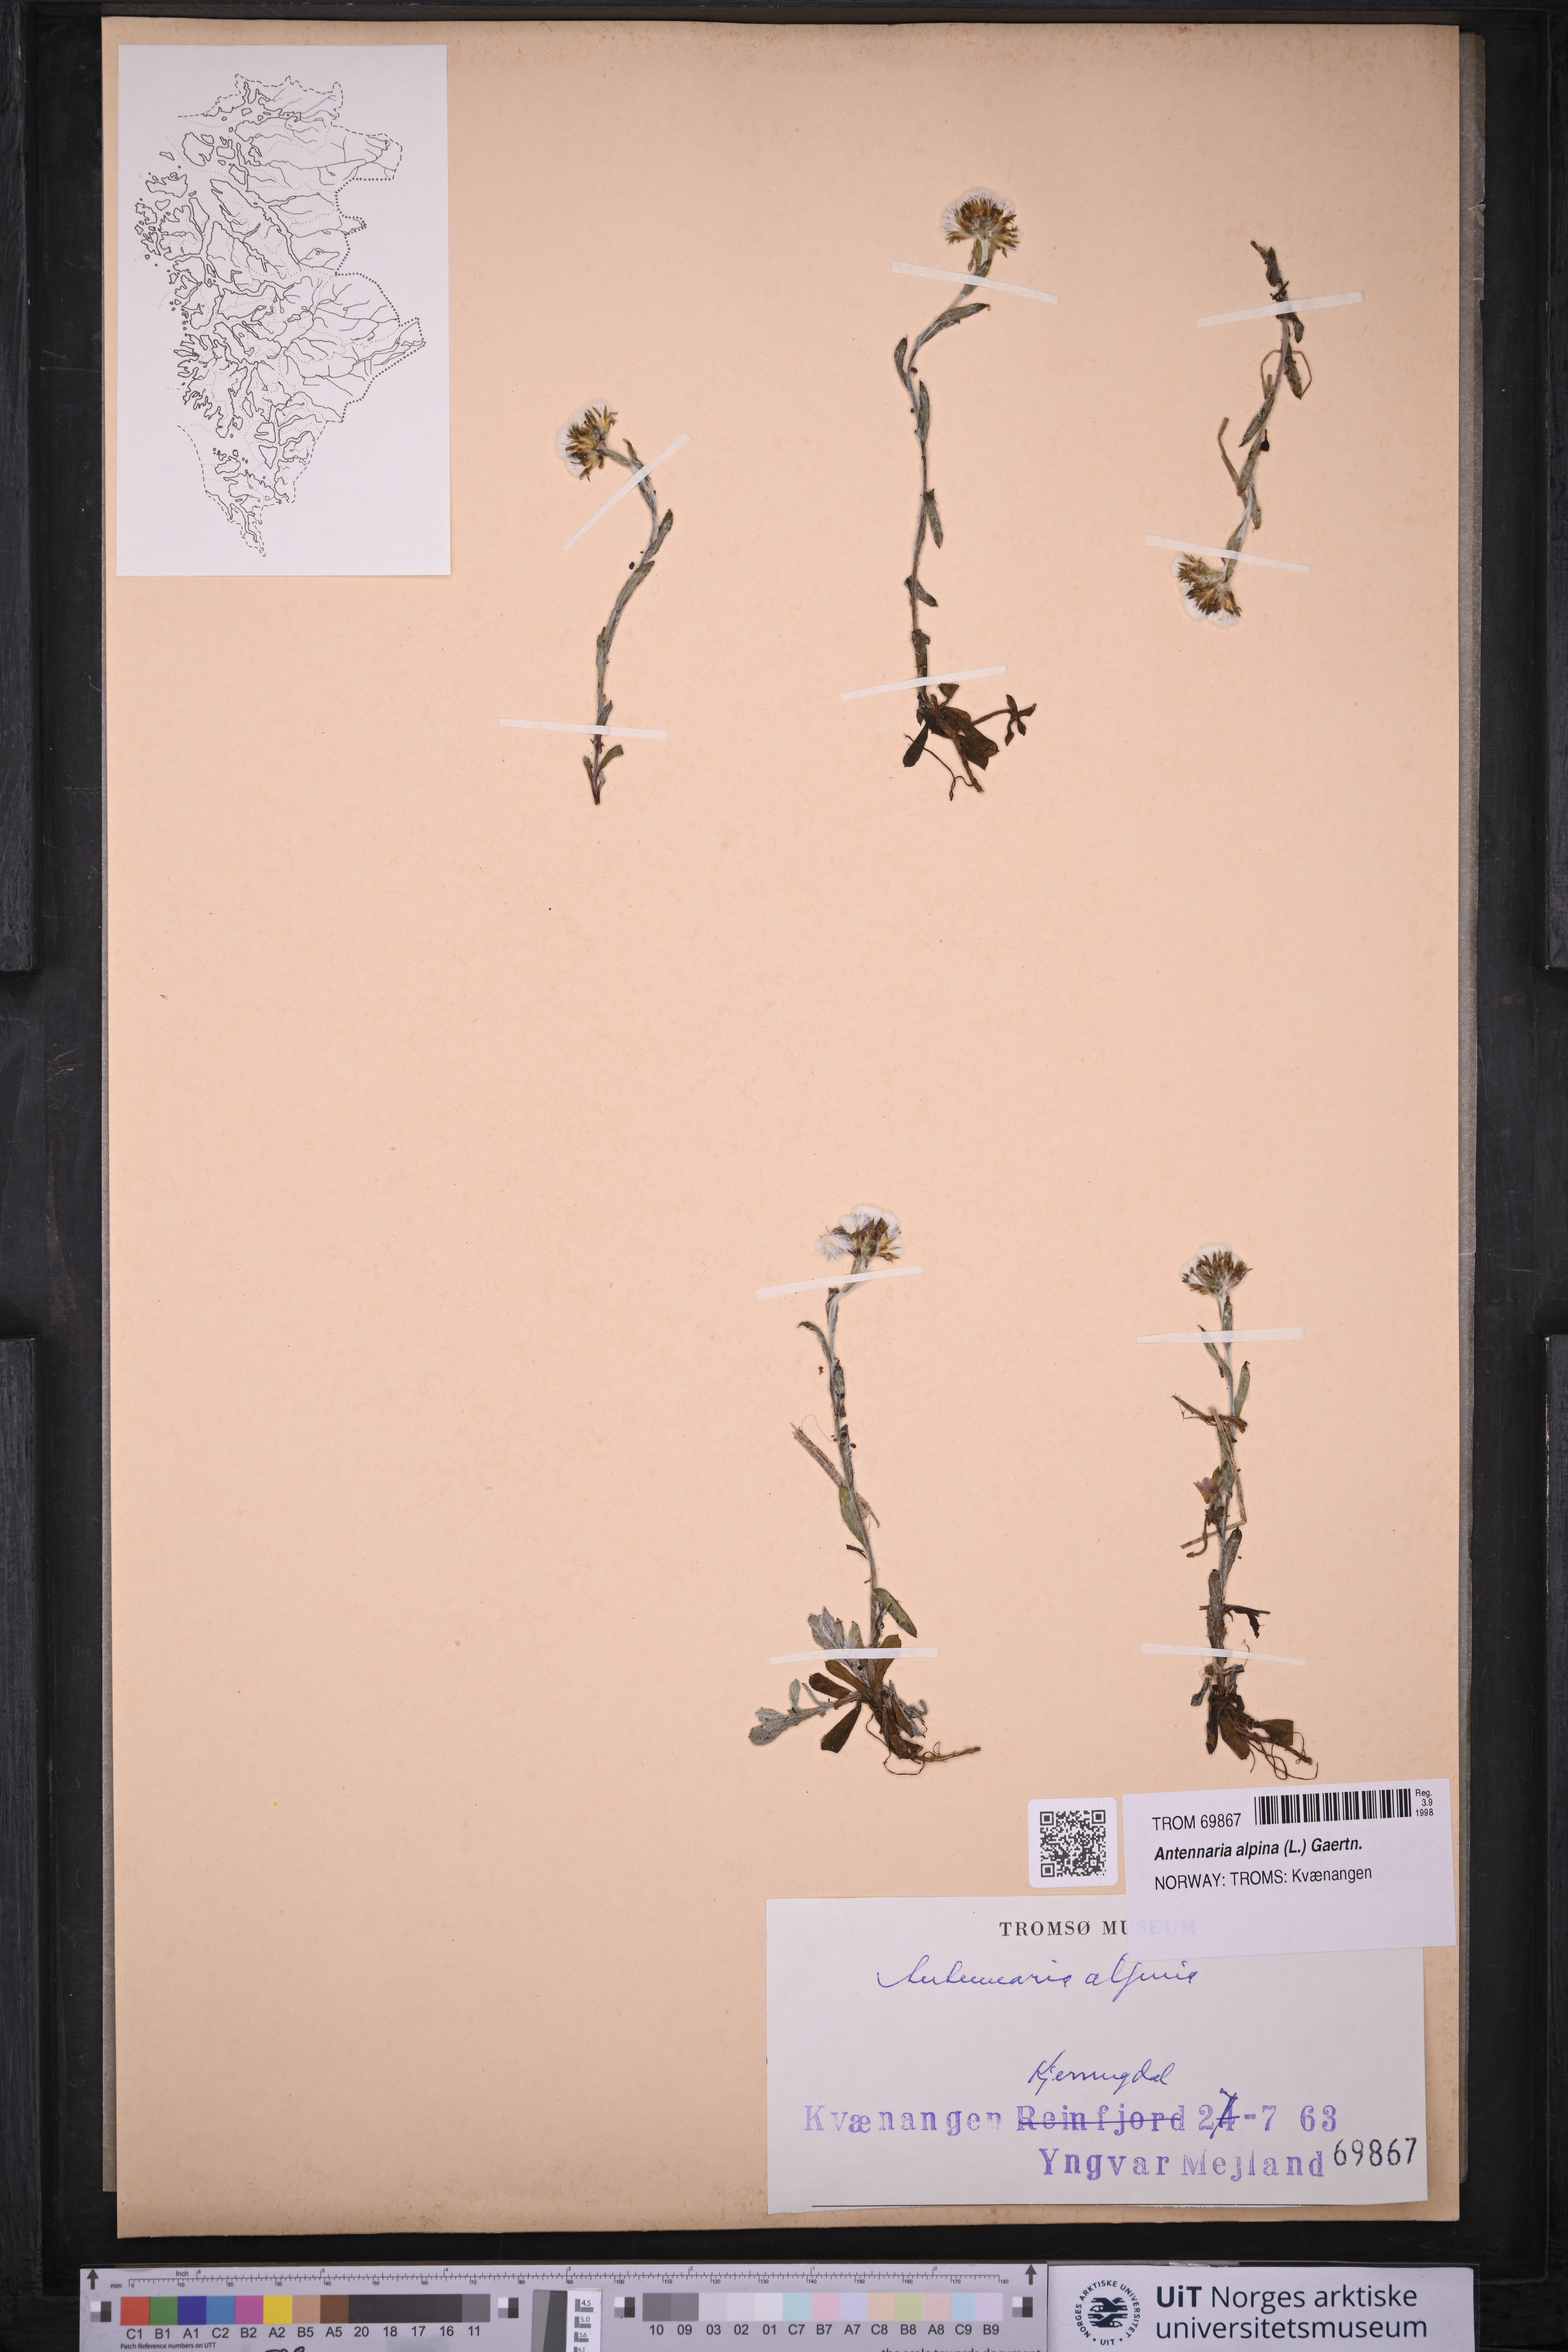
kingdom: Plantae
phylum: Tracheophyta
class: Magnoliopsida
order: Asterales
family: Asteraceae
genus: Antennaria
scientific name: Antennaria alpina
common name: Alpine pussytoes
